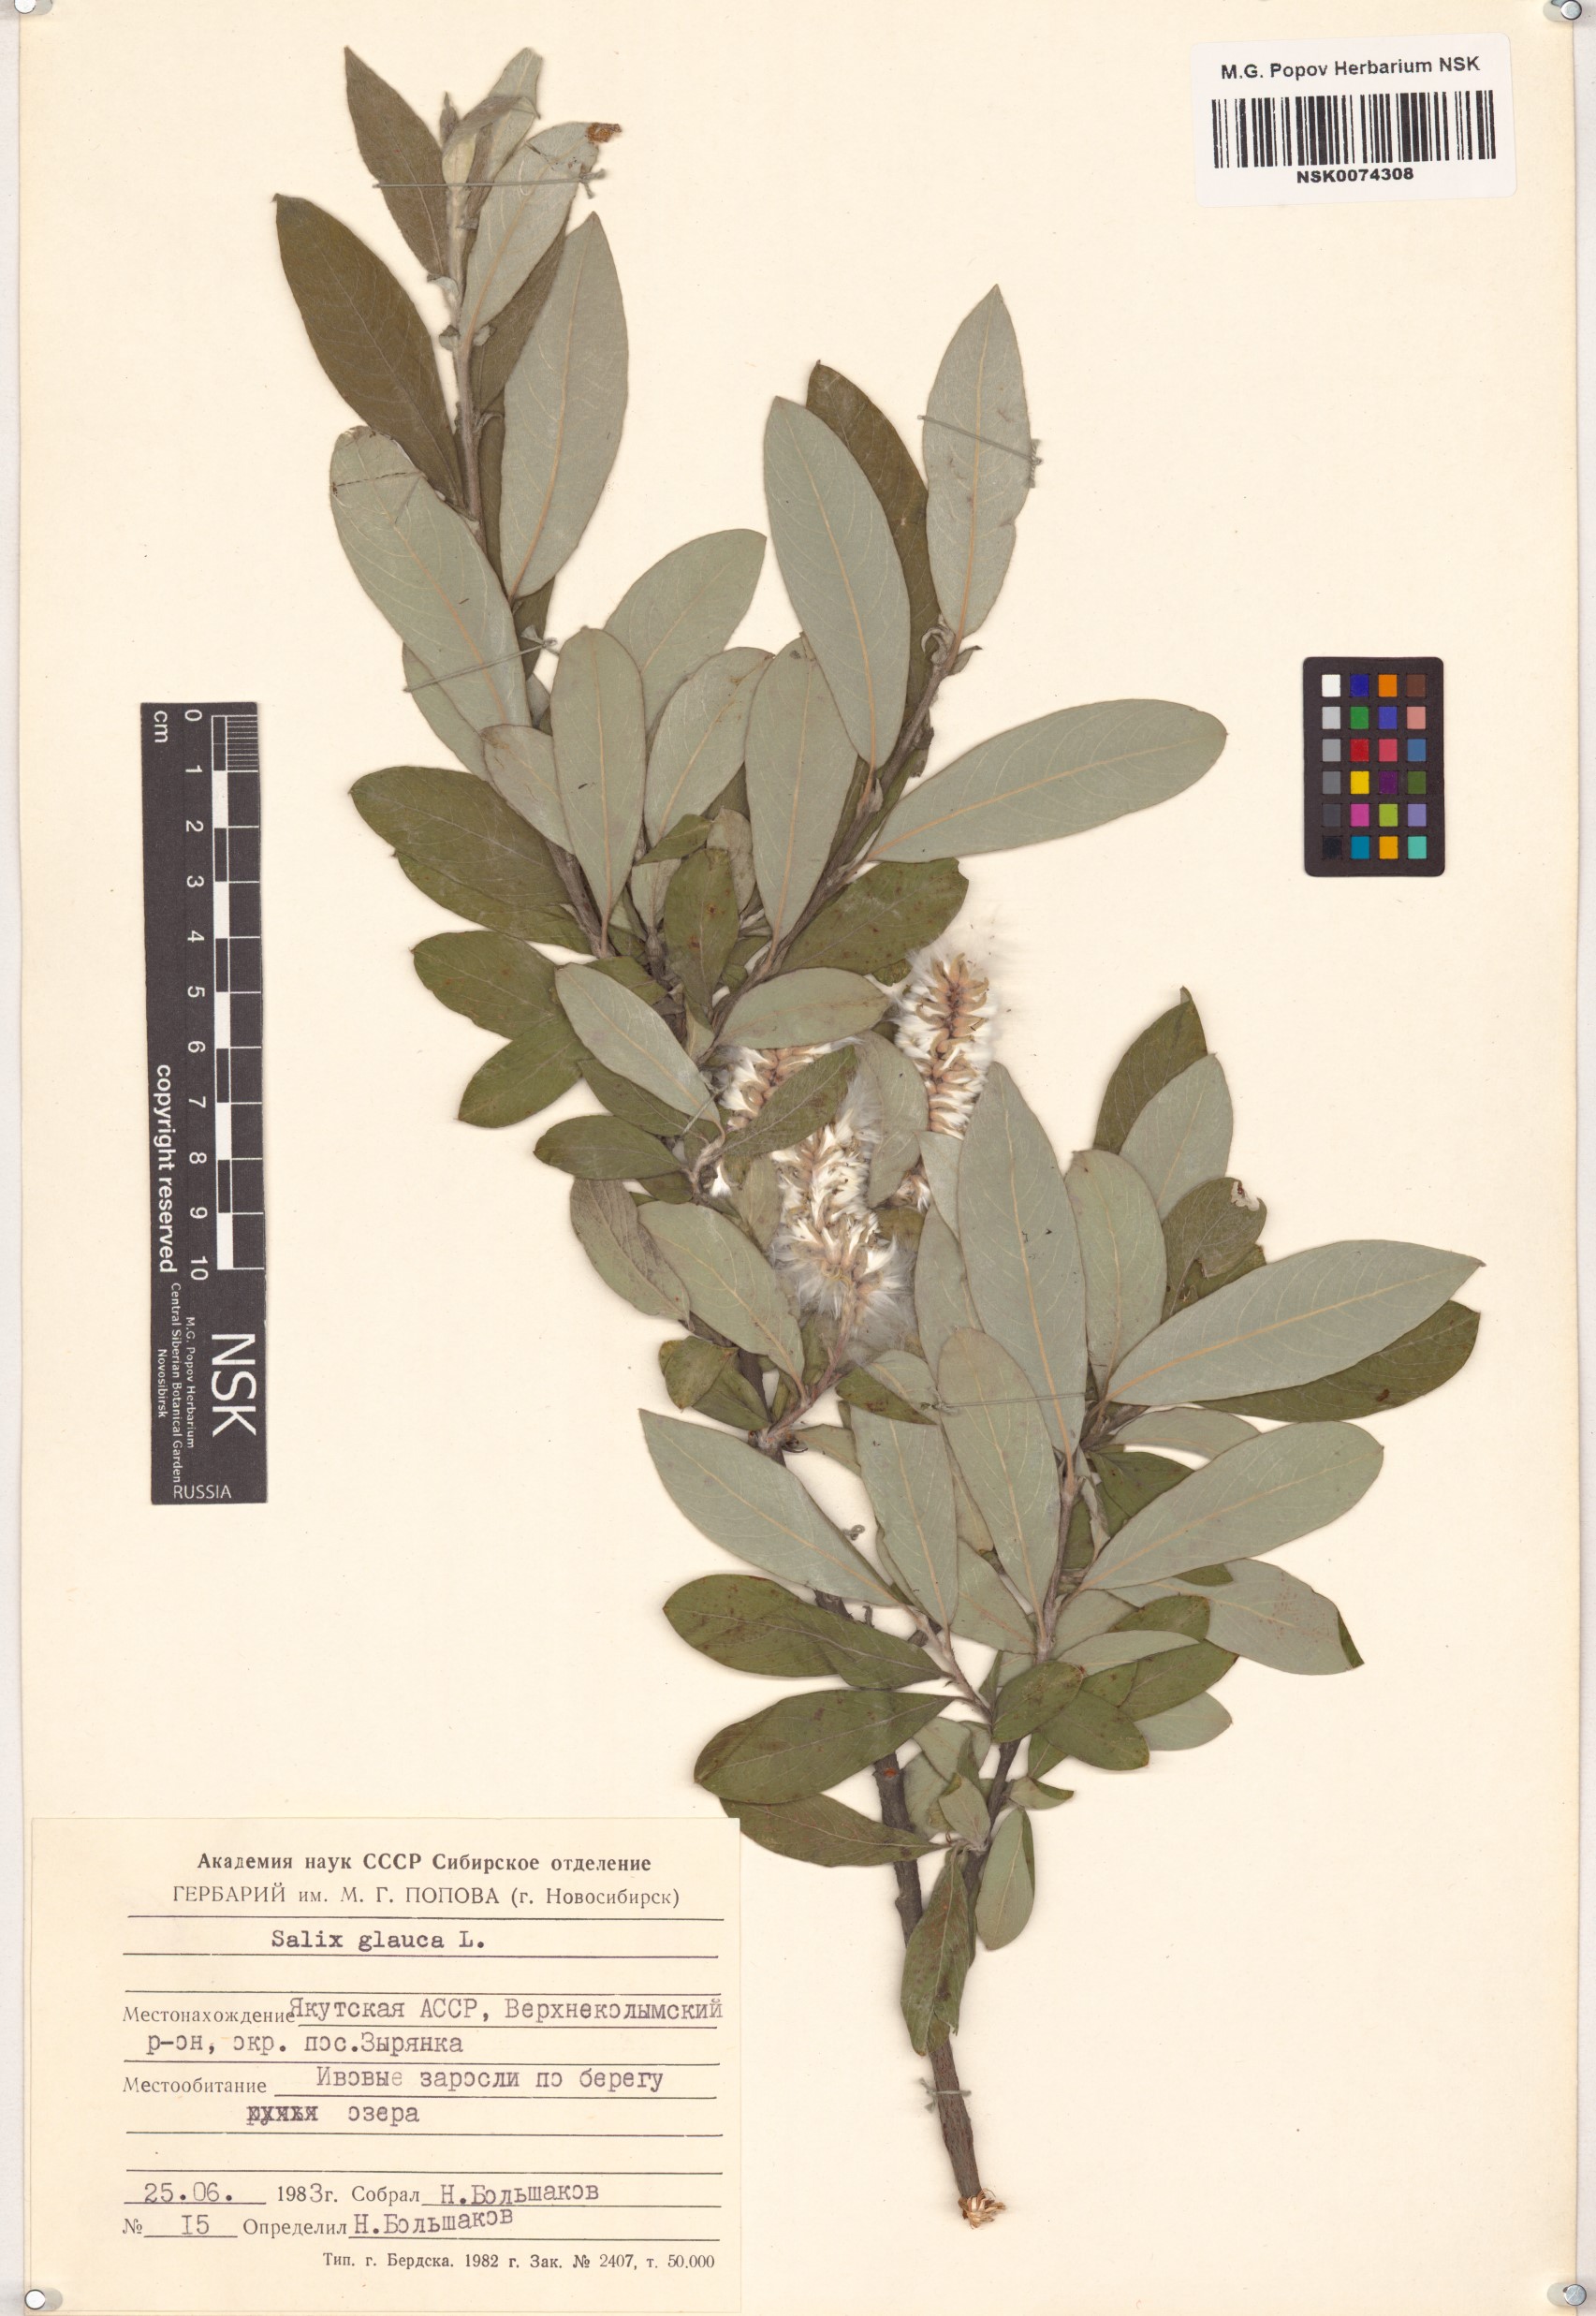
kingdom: Plantae
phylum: Tracheophyta
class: Magnoliopsida
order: Malpighiales
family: Salicaceae
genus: Salix
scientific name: Salix glauca
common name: Glaucous willow
